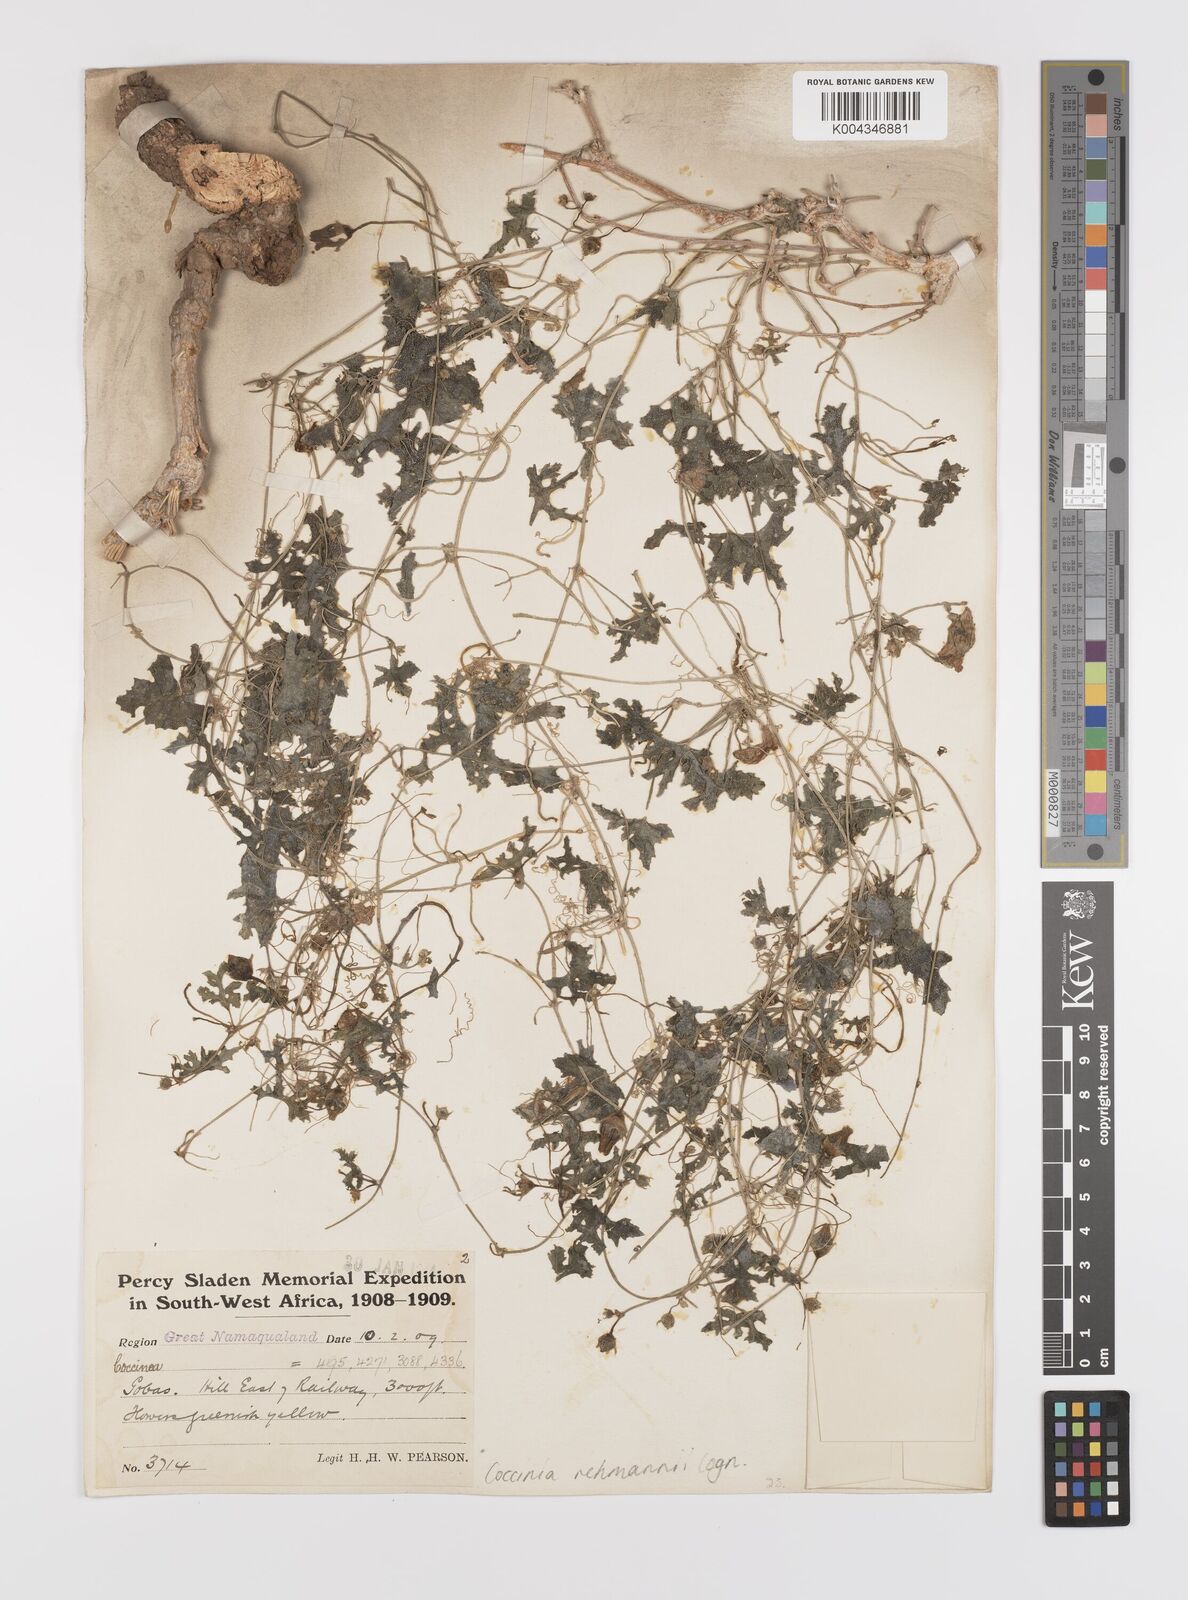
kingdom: Plantae
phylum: Tracheophyta
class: Magnoliopsida
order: Cucurbitales
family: Cucurbitaceae
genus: Coccinia
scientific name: Coccinia rehmannii
